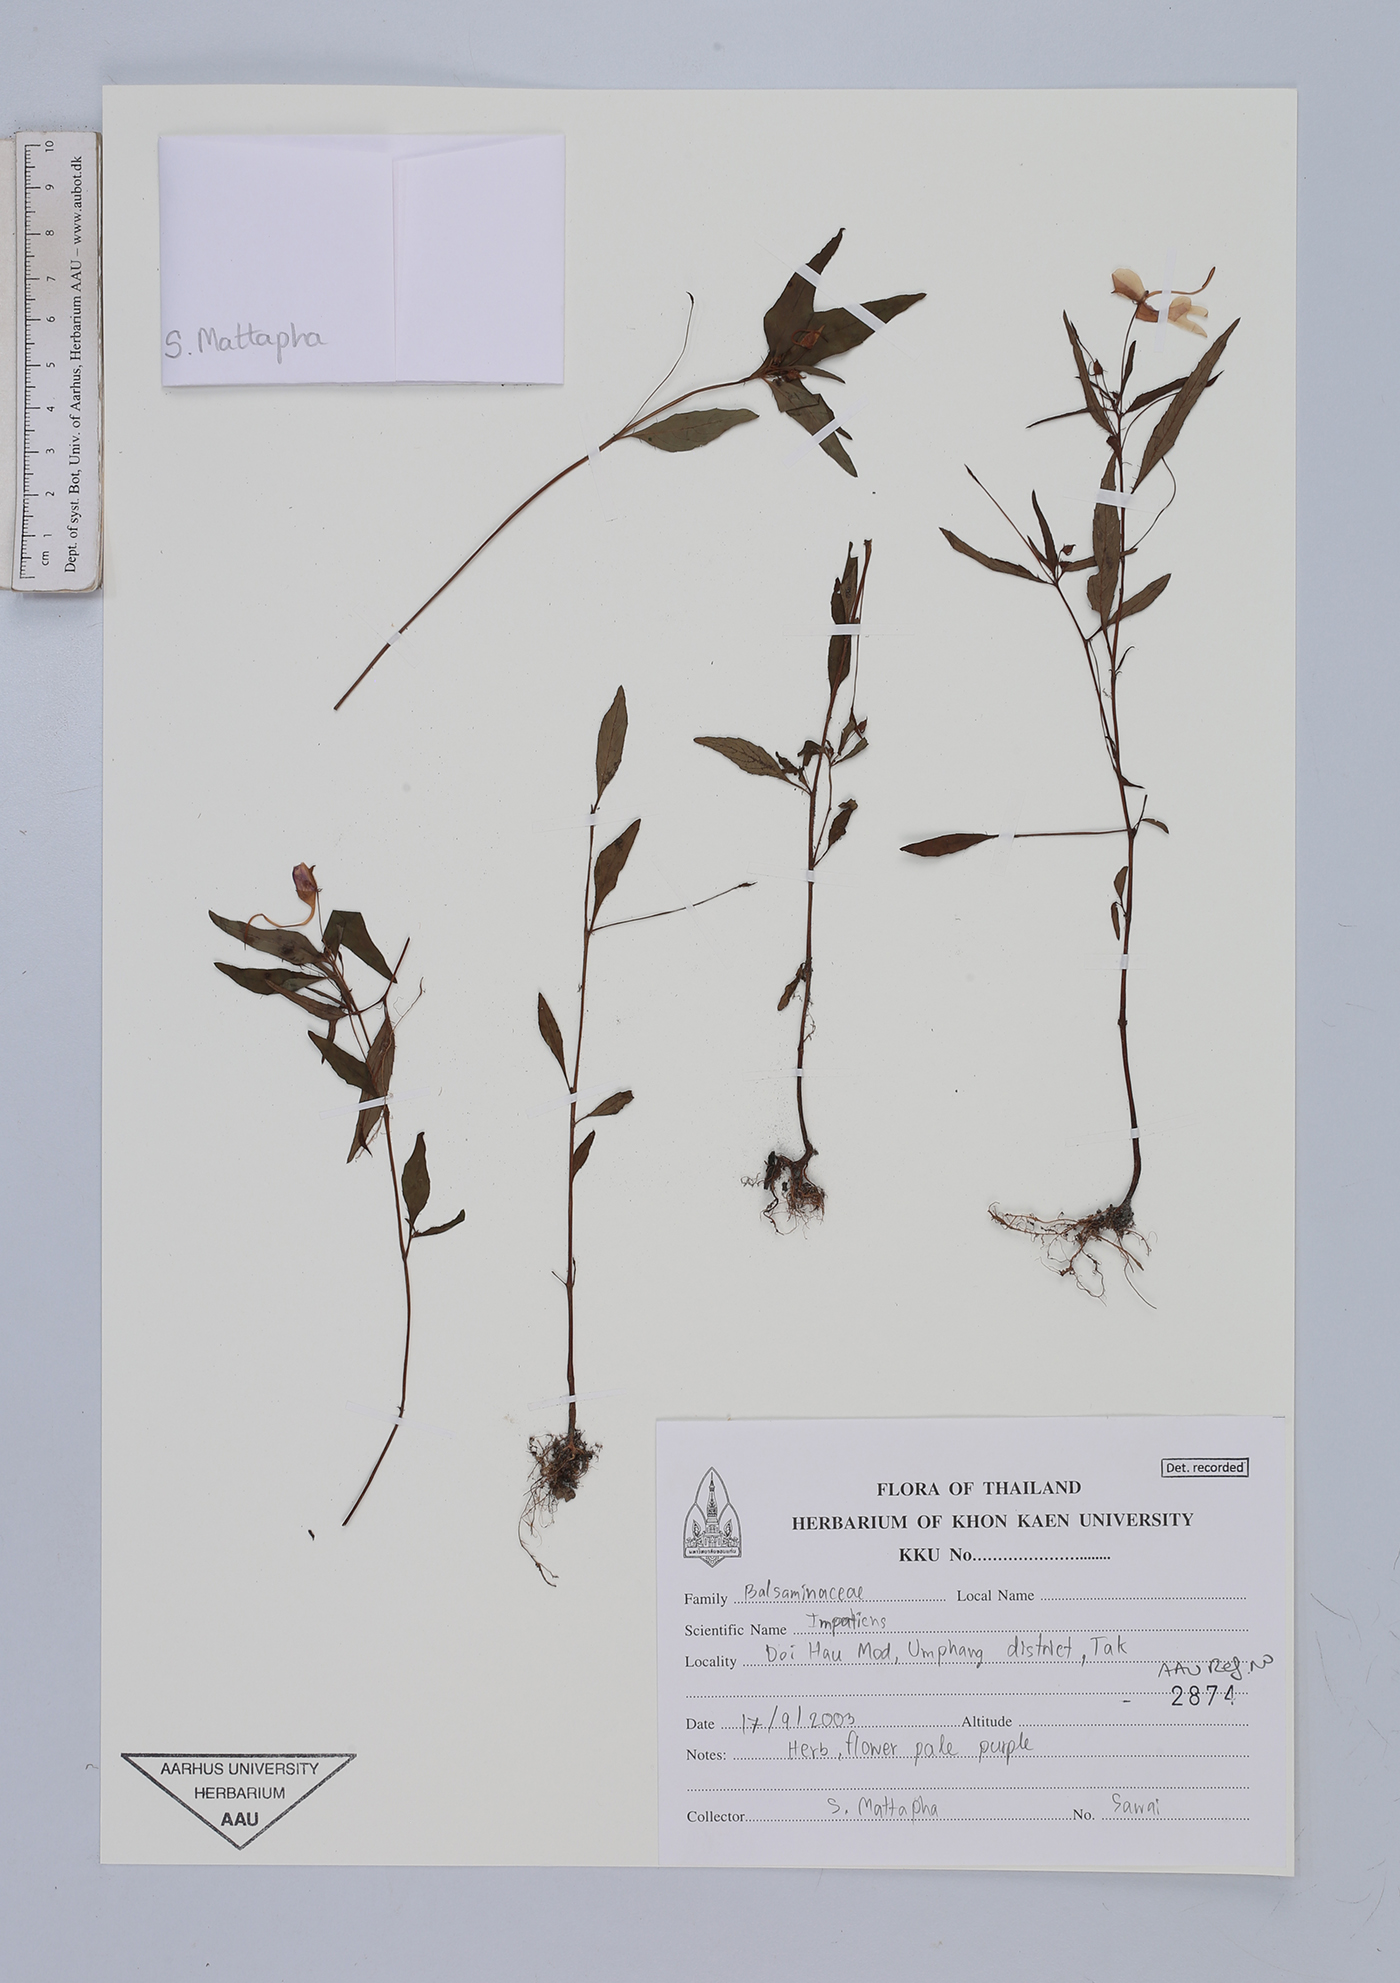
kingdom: Plantae
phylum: Tracheophyta
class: Magnoliopsida
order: Ericales
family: Balsaminaceae
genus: Impatiens
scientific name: Impatiens
